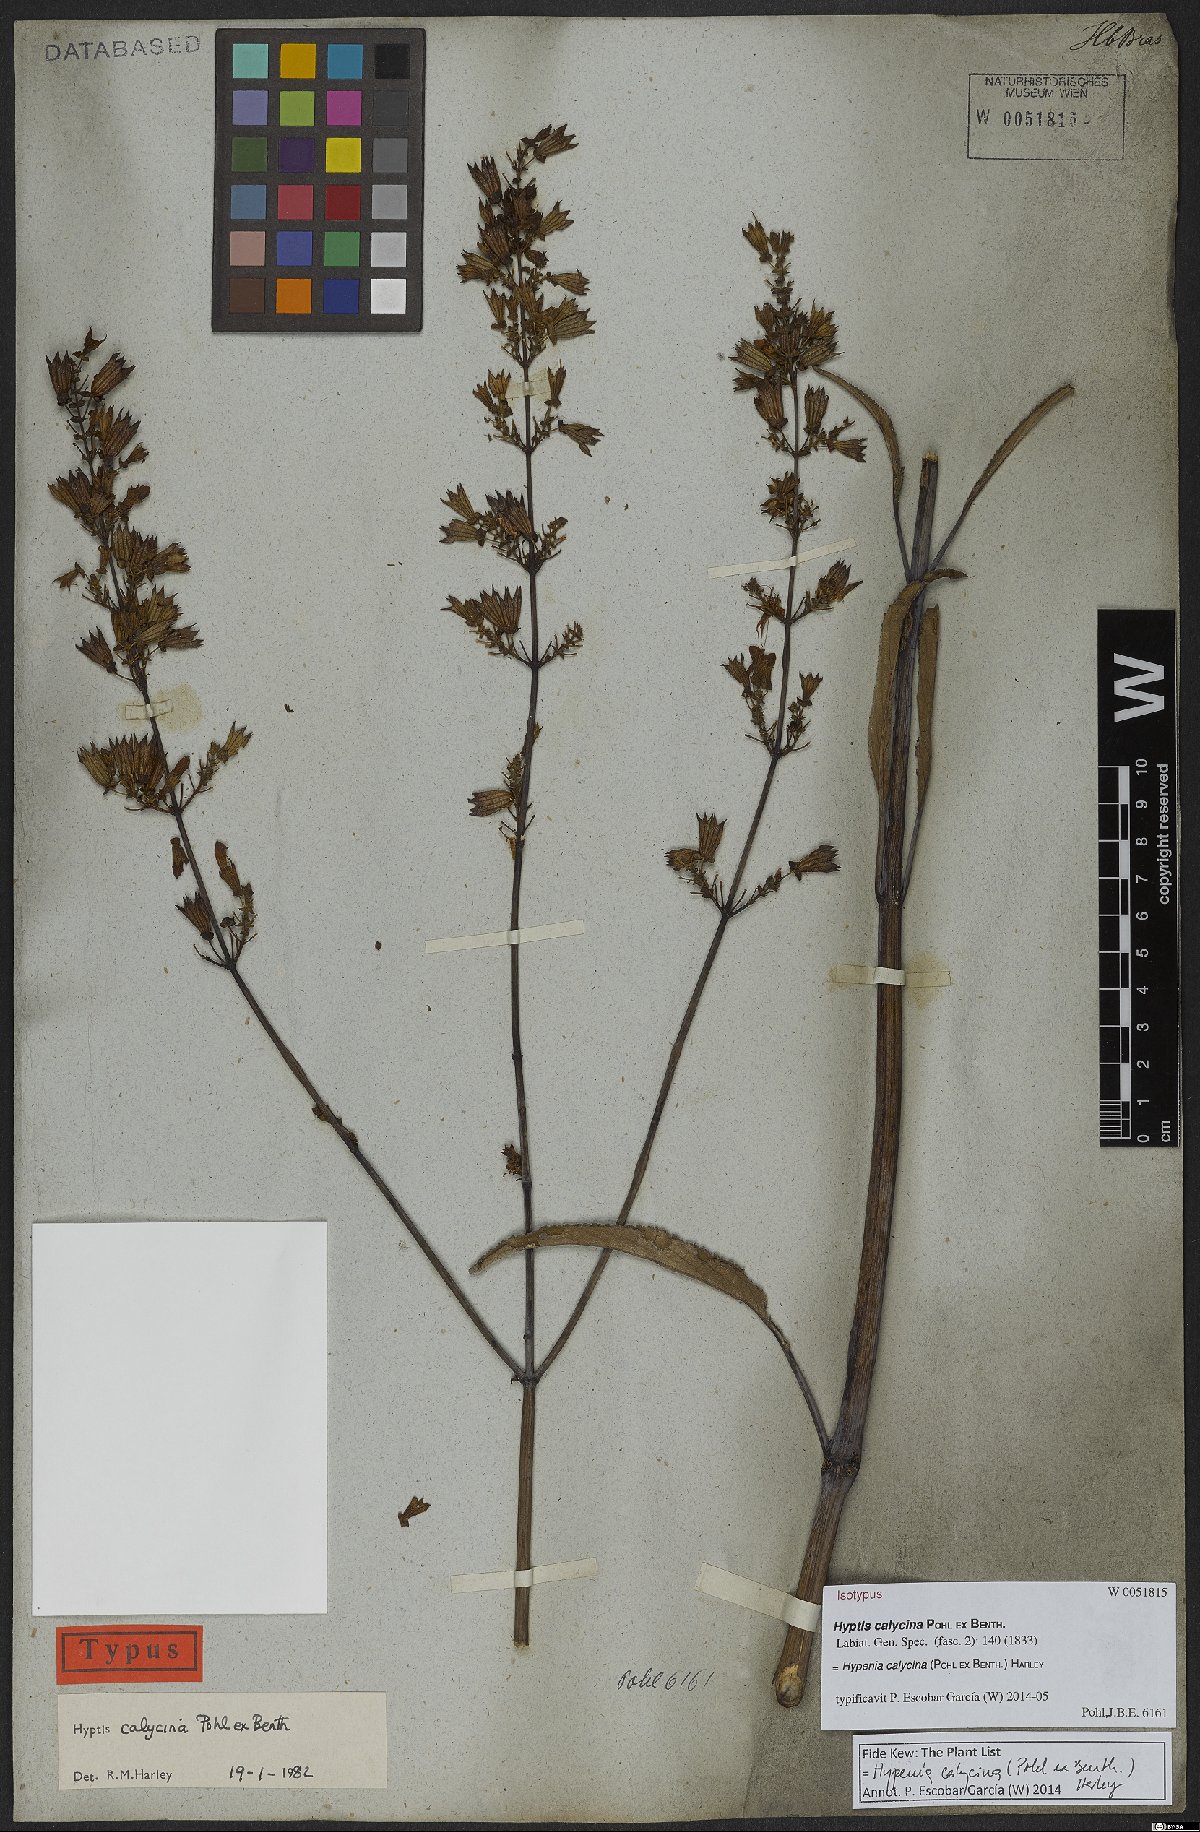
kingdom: Plantae
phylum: Tracheophyta
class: Magnoliopsida
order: Lamiales
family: Lamiaceae
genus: Hypenia
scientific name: Hypenia calycina
